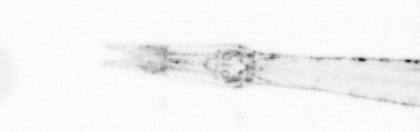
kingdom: Animalia
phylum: Chaetognatha
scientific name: Chaetognatha
